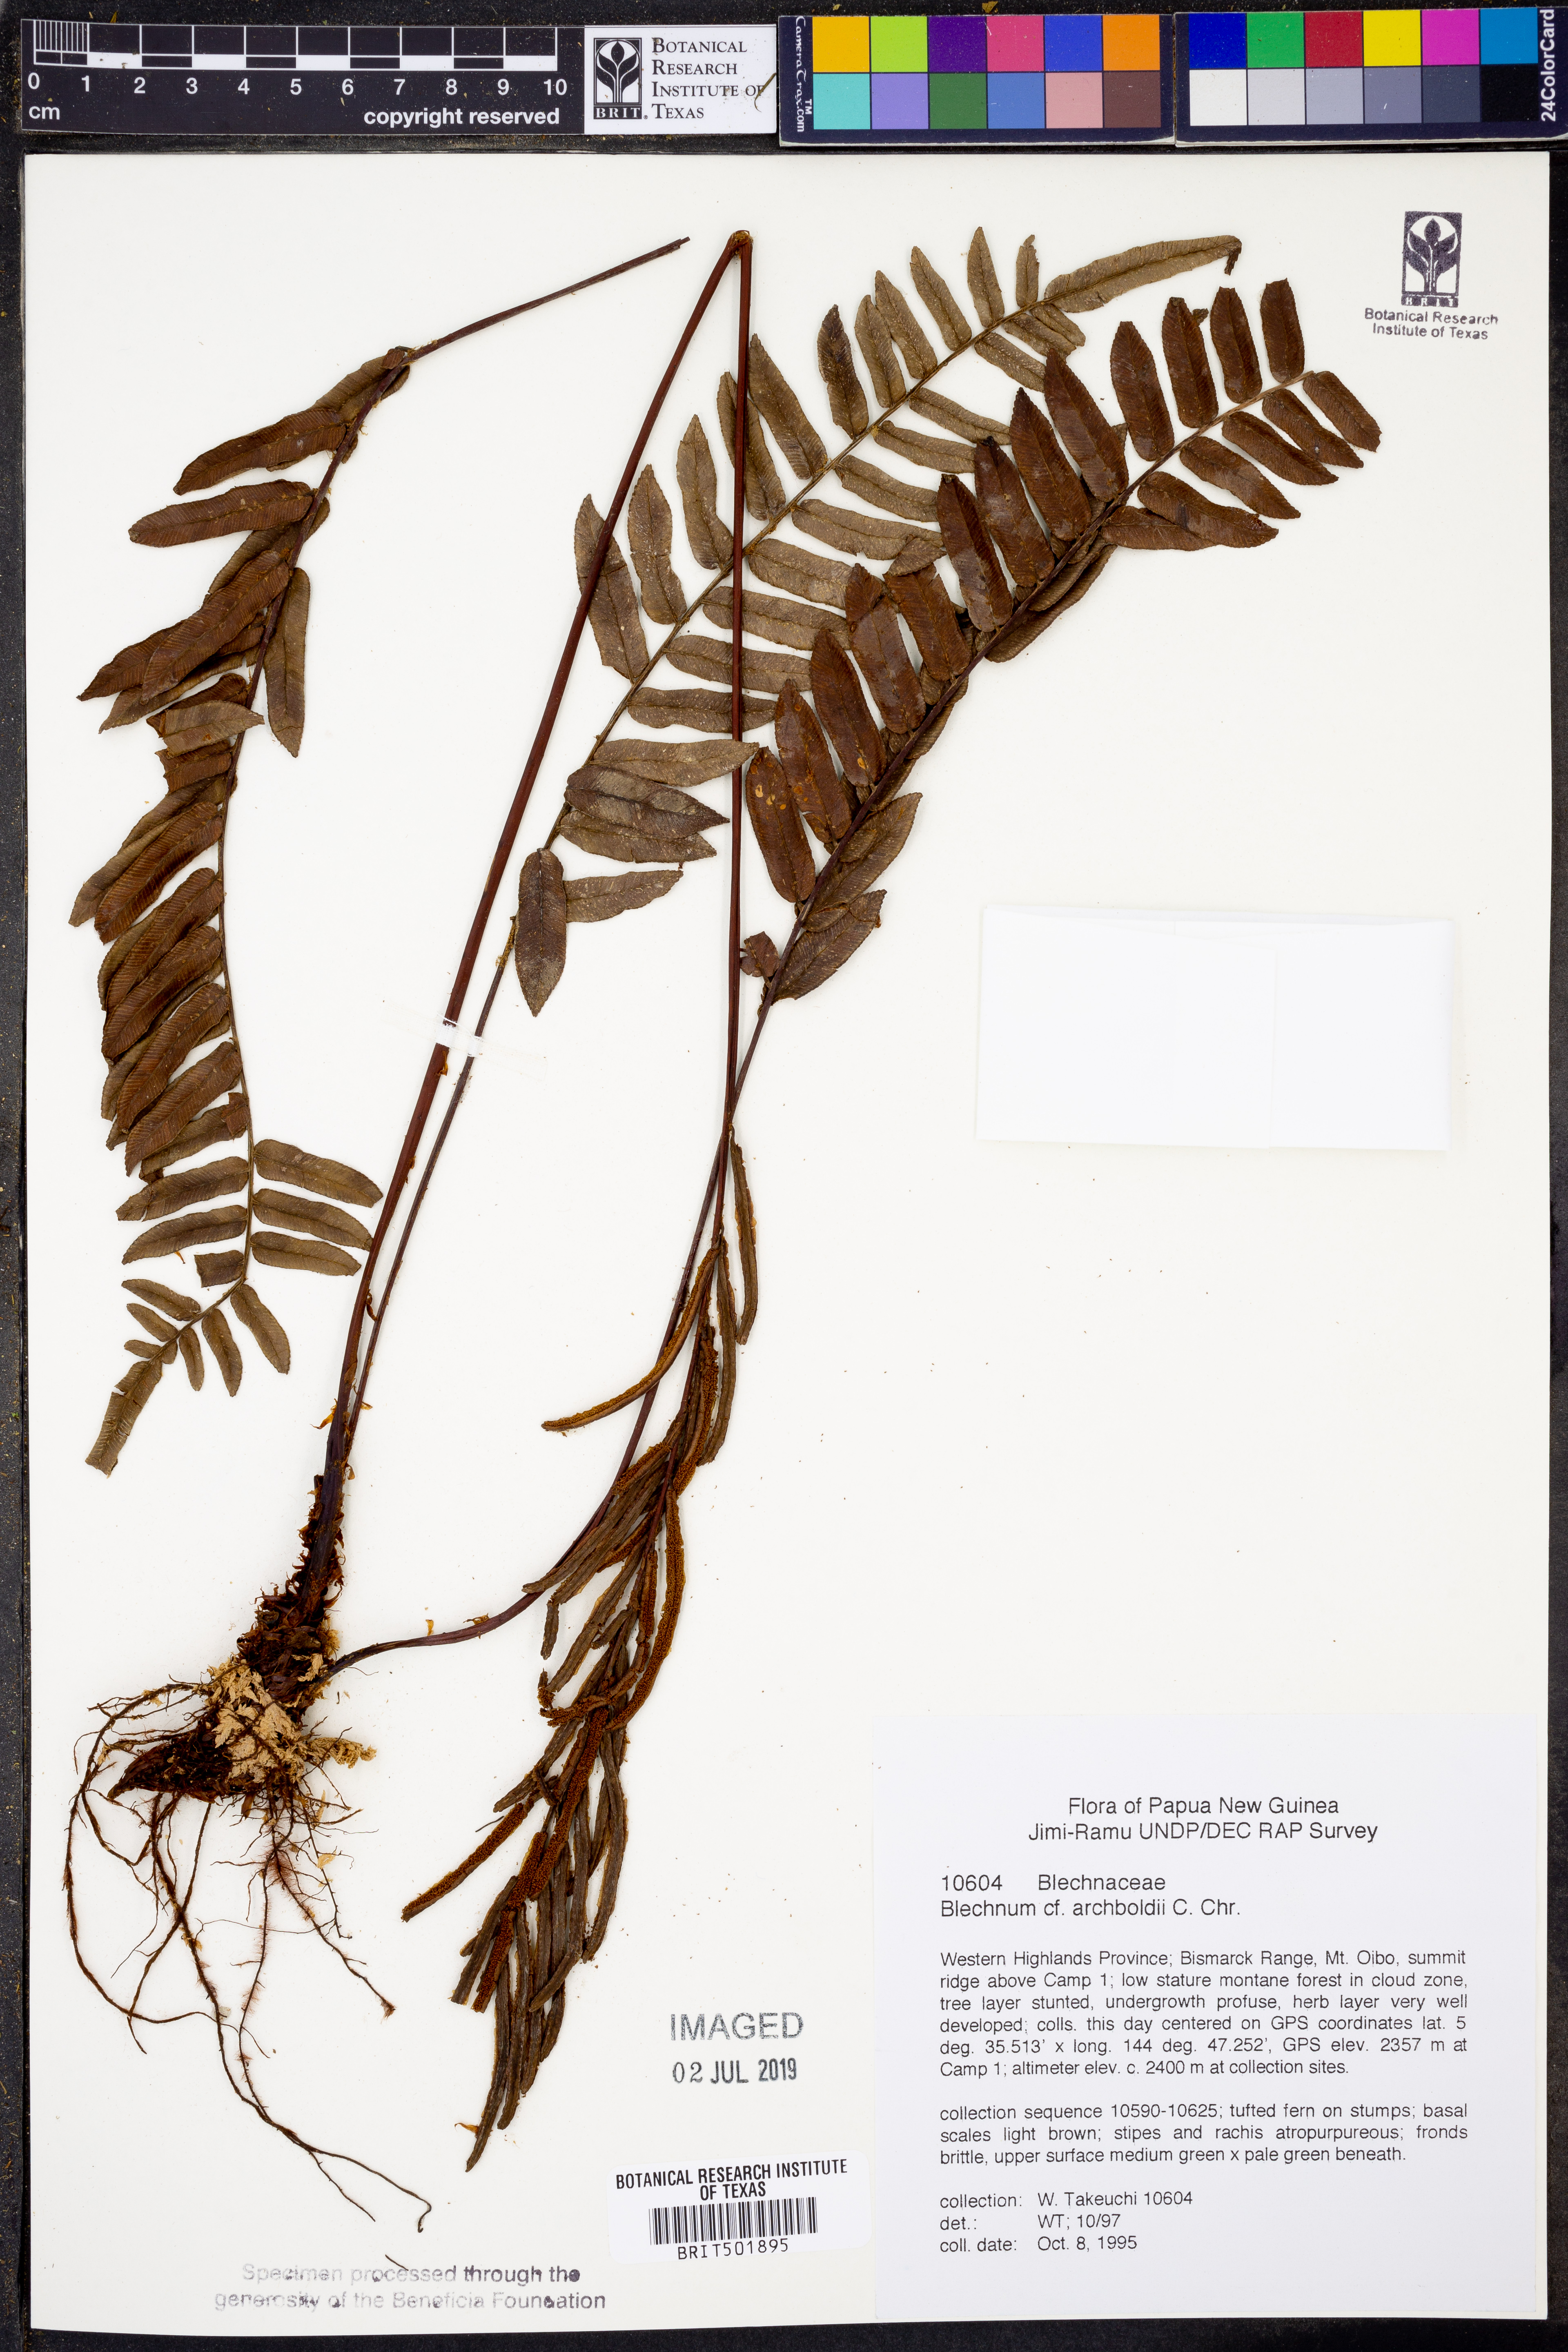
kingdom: Plantae
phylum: Tracheophyta
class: Polypodiopsida
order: Polypodiales
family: Blechnaceae
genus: Parablechnum
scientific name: Parablechnum revolutum
